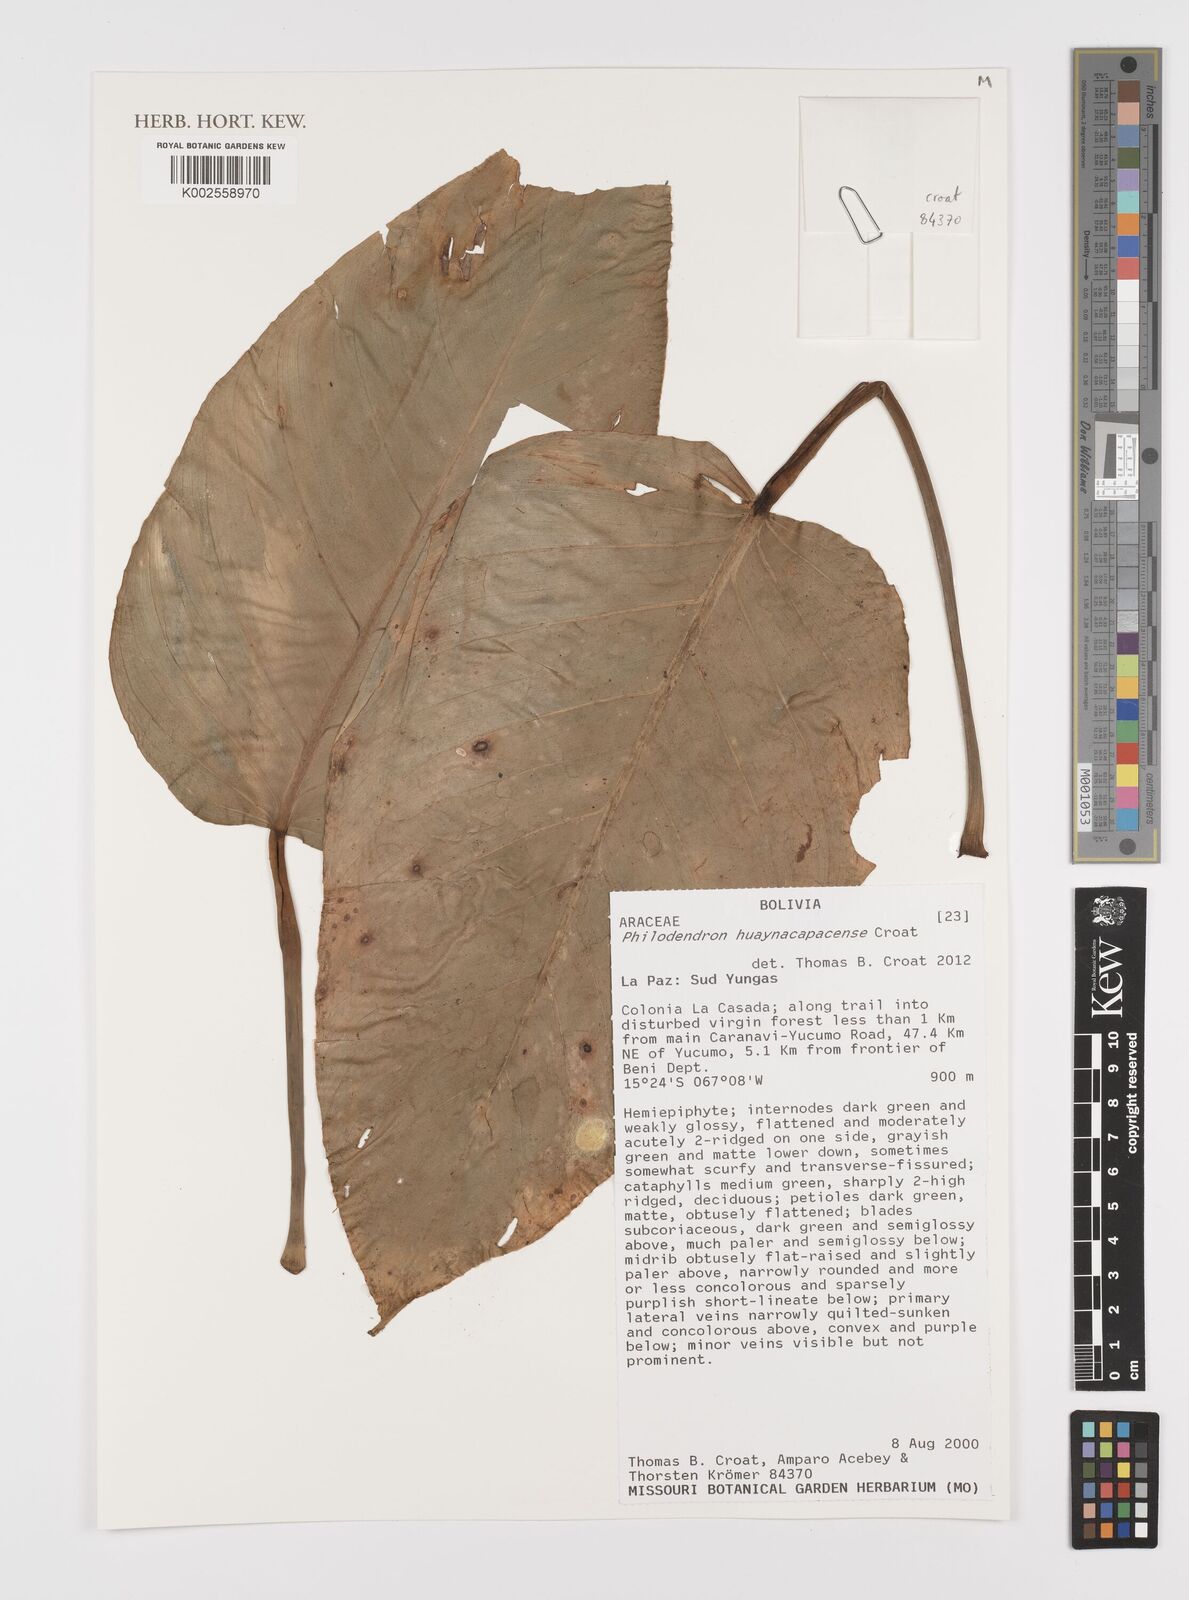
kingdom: Plantae
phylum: Tracheophyta
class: Liliopsida
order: Alismatales
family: Araceae
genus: Philodendron
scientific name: Philodendron huaynacapacense
